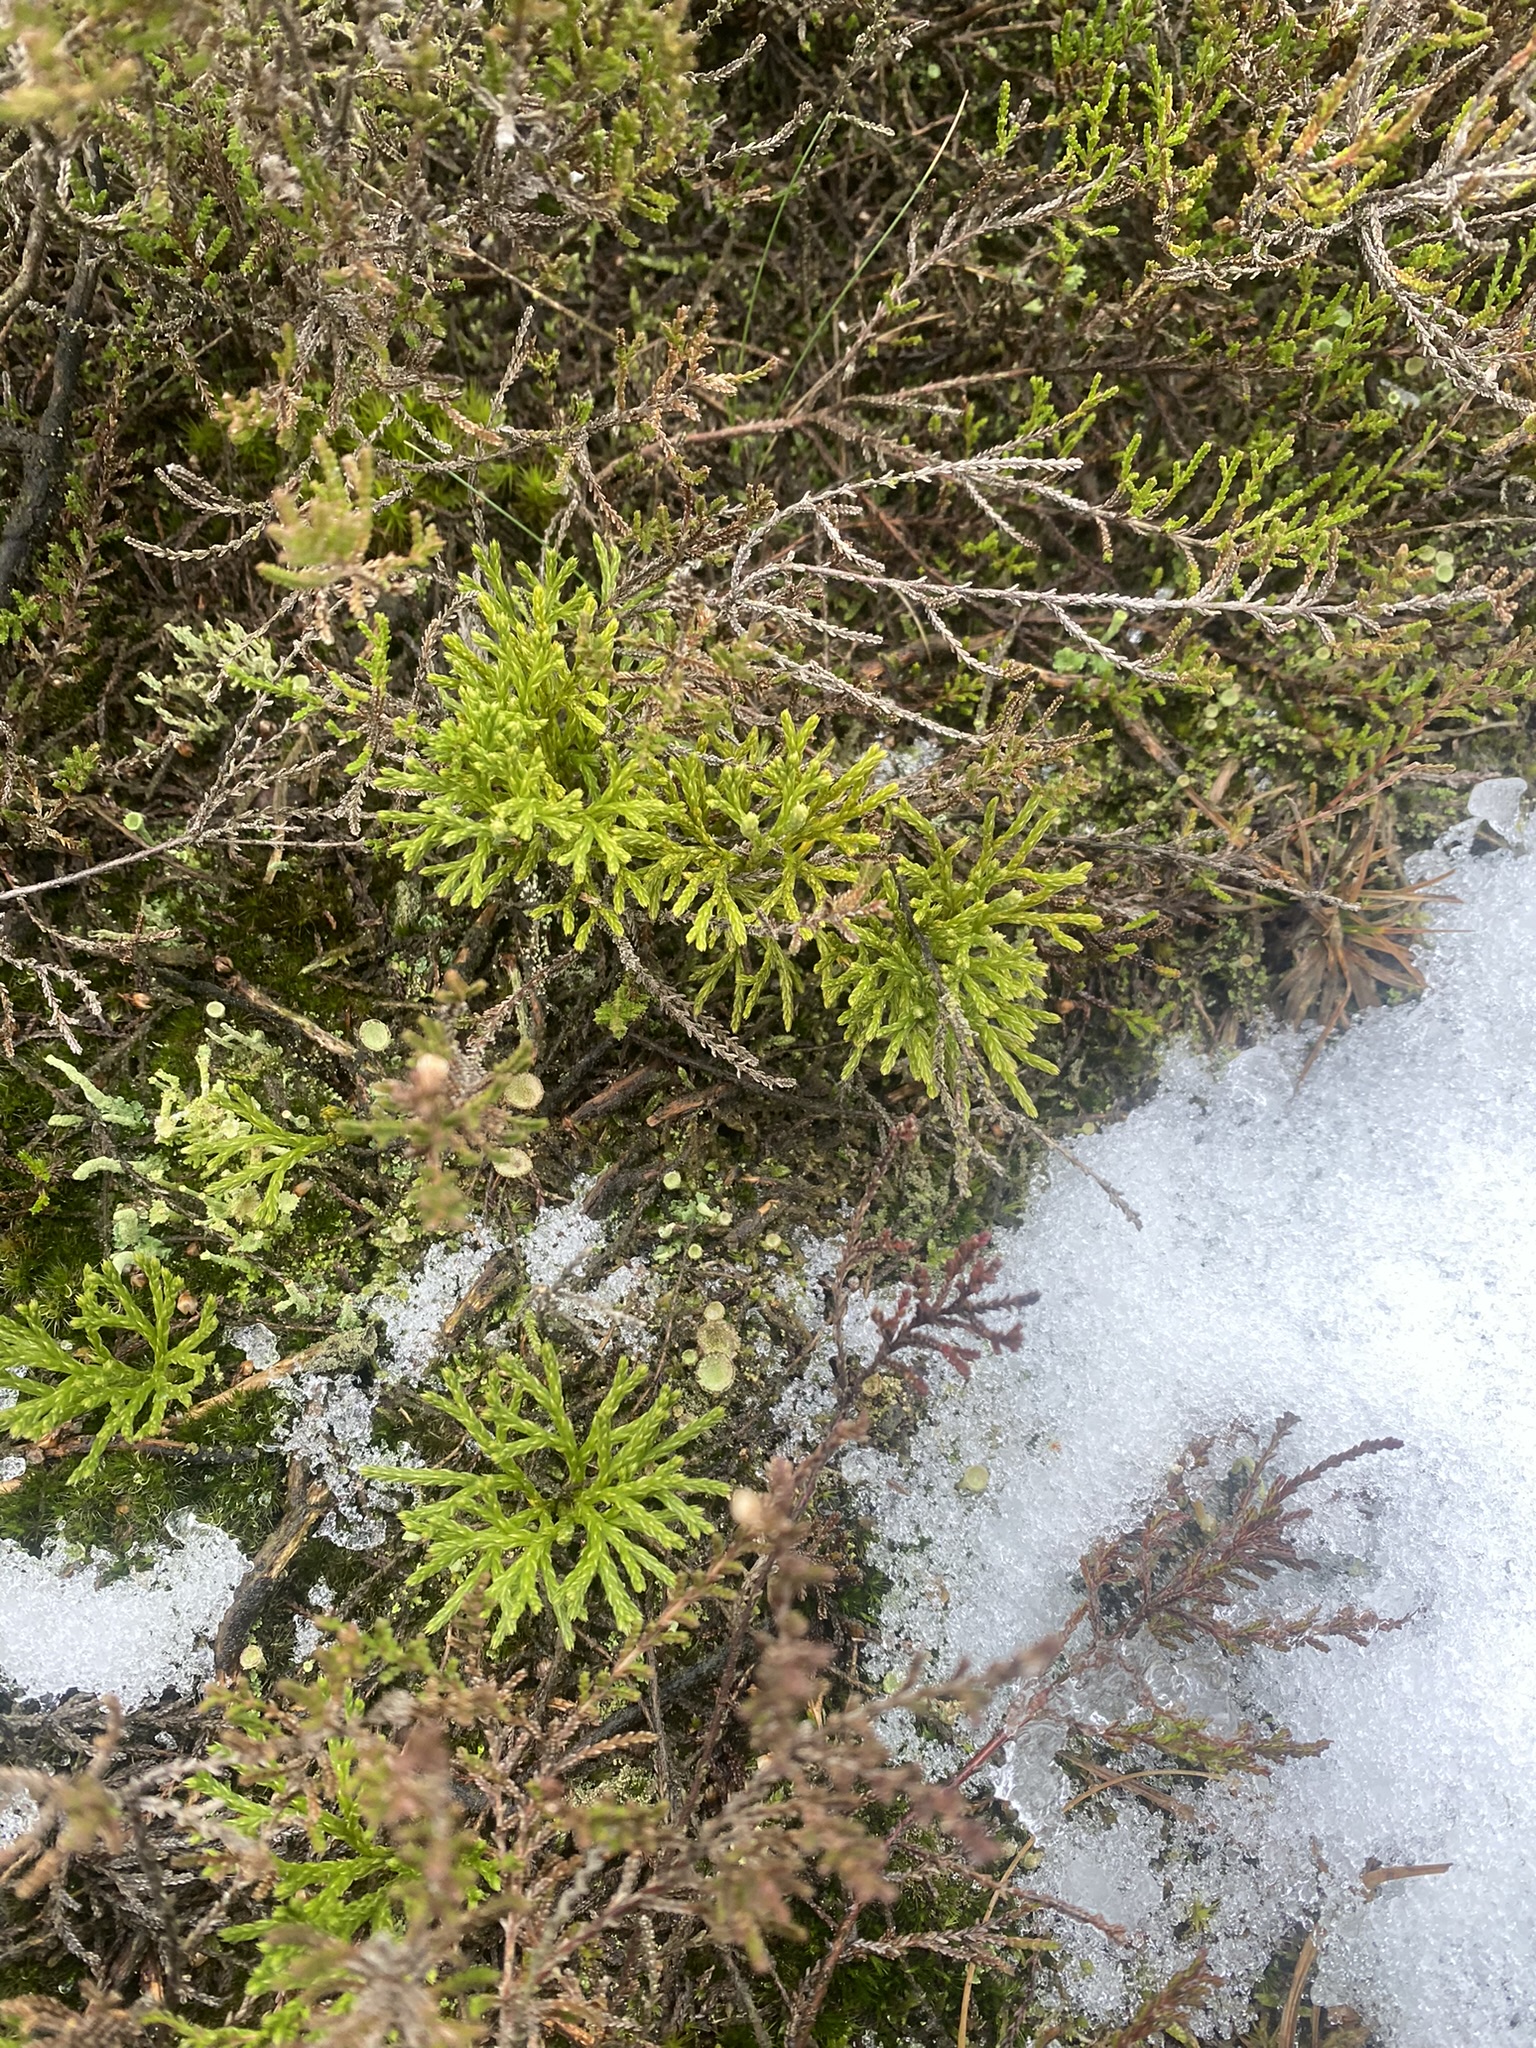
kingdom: Plantae
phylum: Tracheophyta
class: Lycopodiopsida
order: Lycopodiales
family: Lycopodiaceae
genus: Diphasiastrum
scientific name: Diphasiastrum tristachyum
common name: Flad ulvefod × cypres-ulvefod
